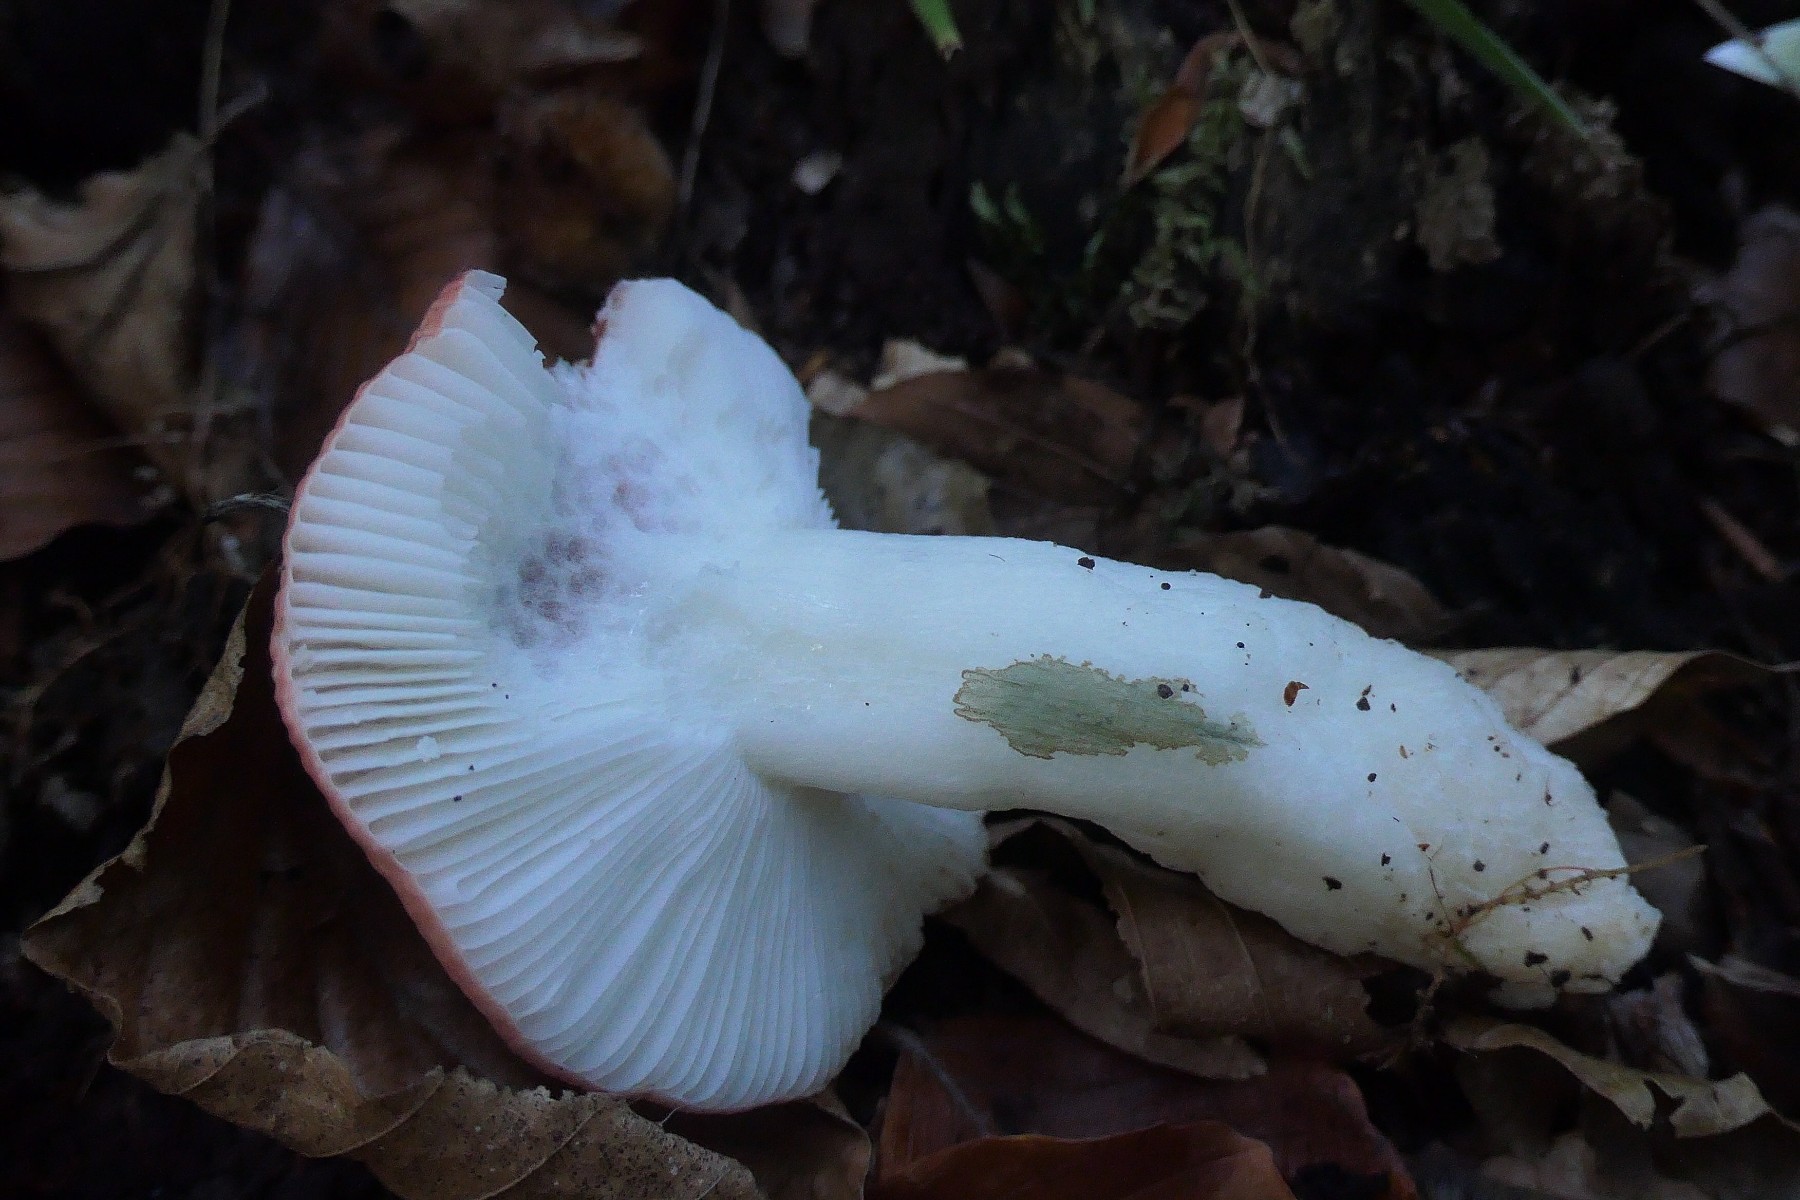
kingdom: Fungi
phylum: Basidiomycota
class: Agaricomycetes
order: Russulales
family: Russulaceae
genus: Russula
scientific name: Russula silvestris
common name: mellemstor gift-skørhat
